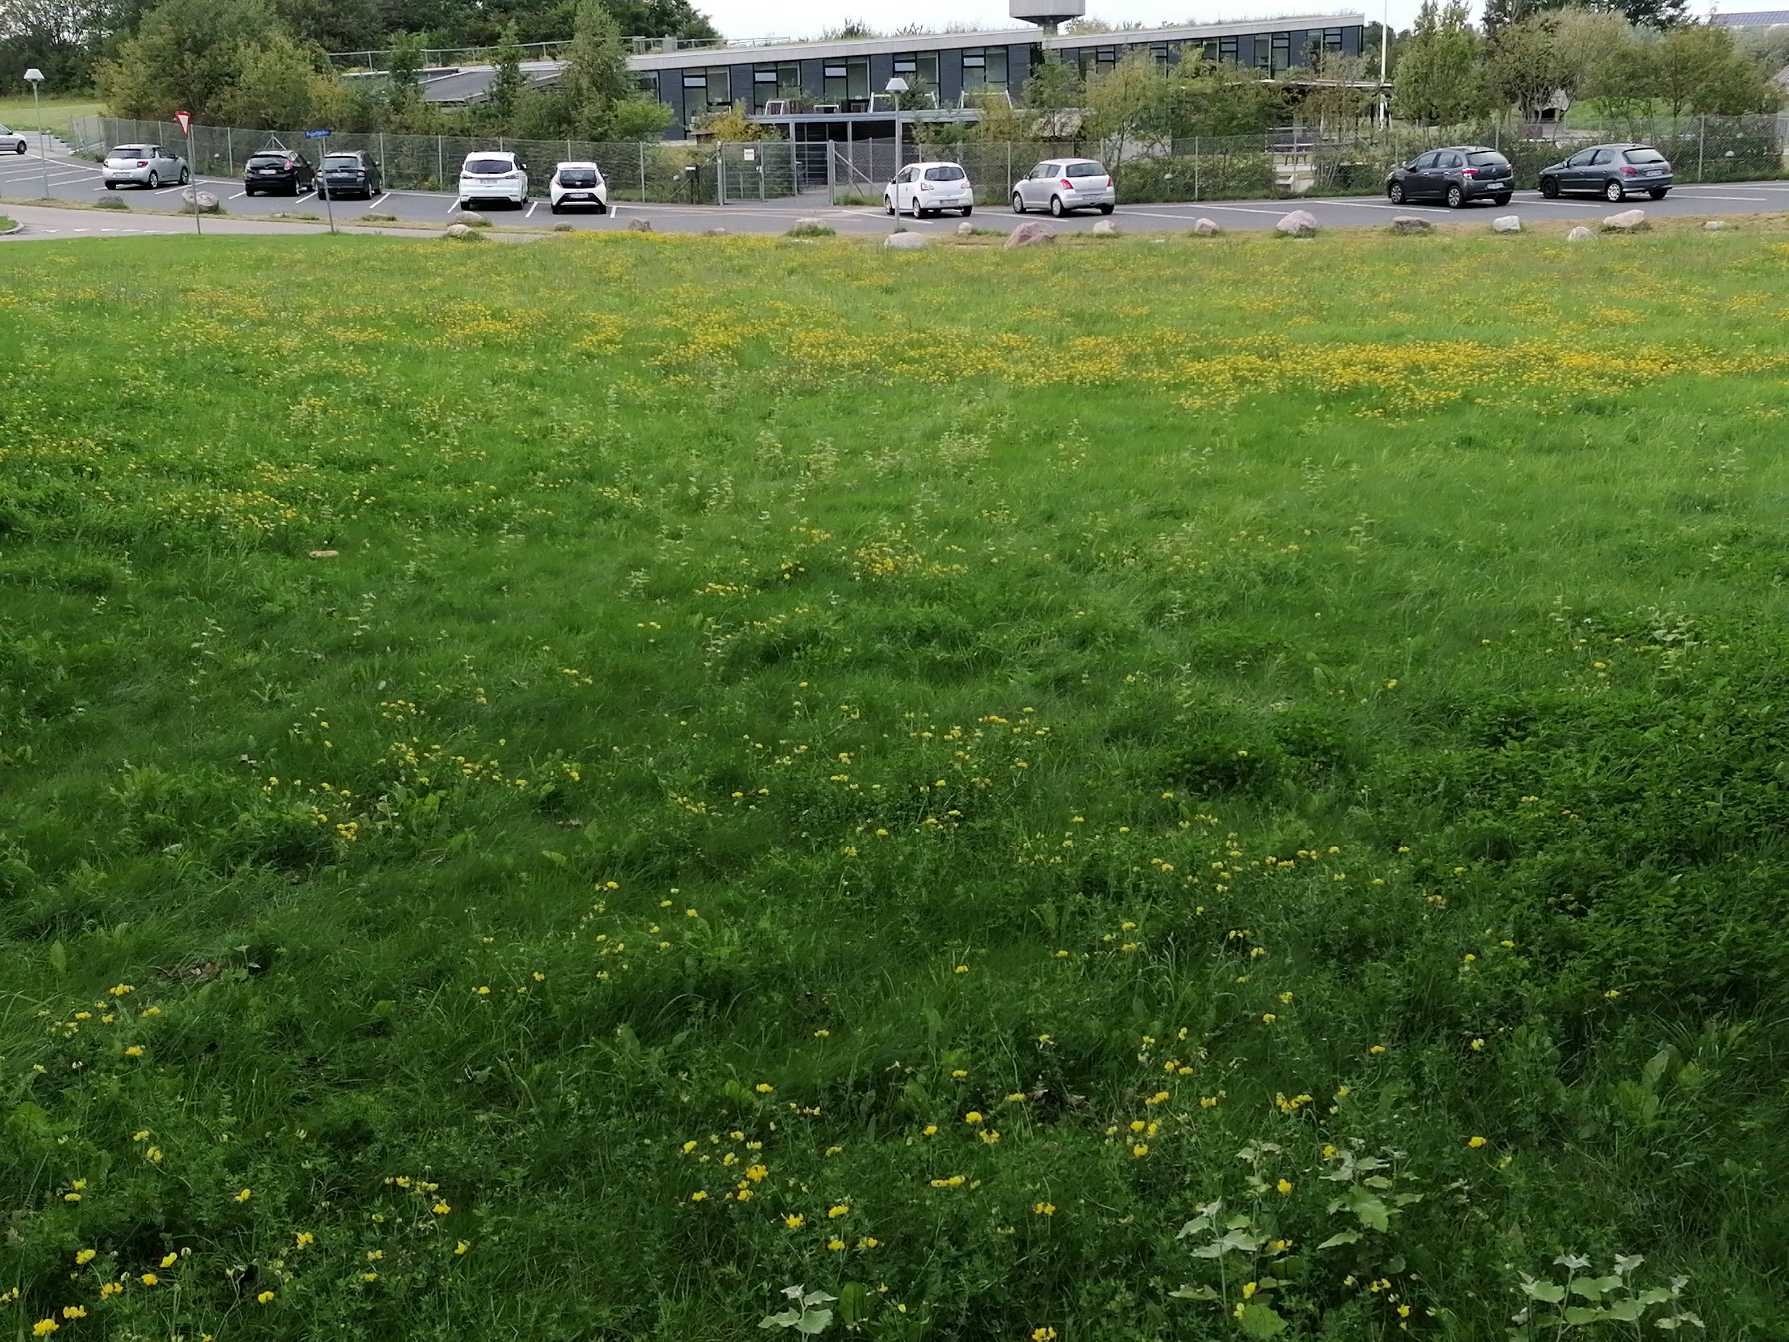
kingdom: Plantae
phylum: Tracheophyta
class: Magnoliopsida
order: Fabales
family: Fabaceae
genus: Lotus
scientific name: Lotus corniculatus
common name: Almindelig kællingetand
